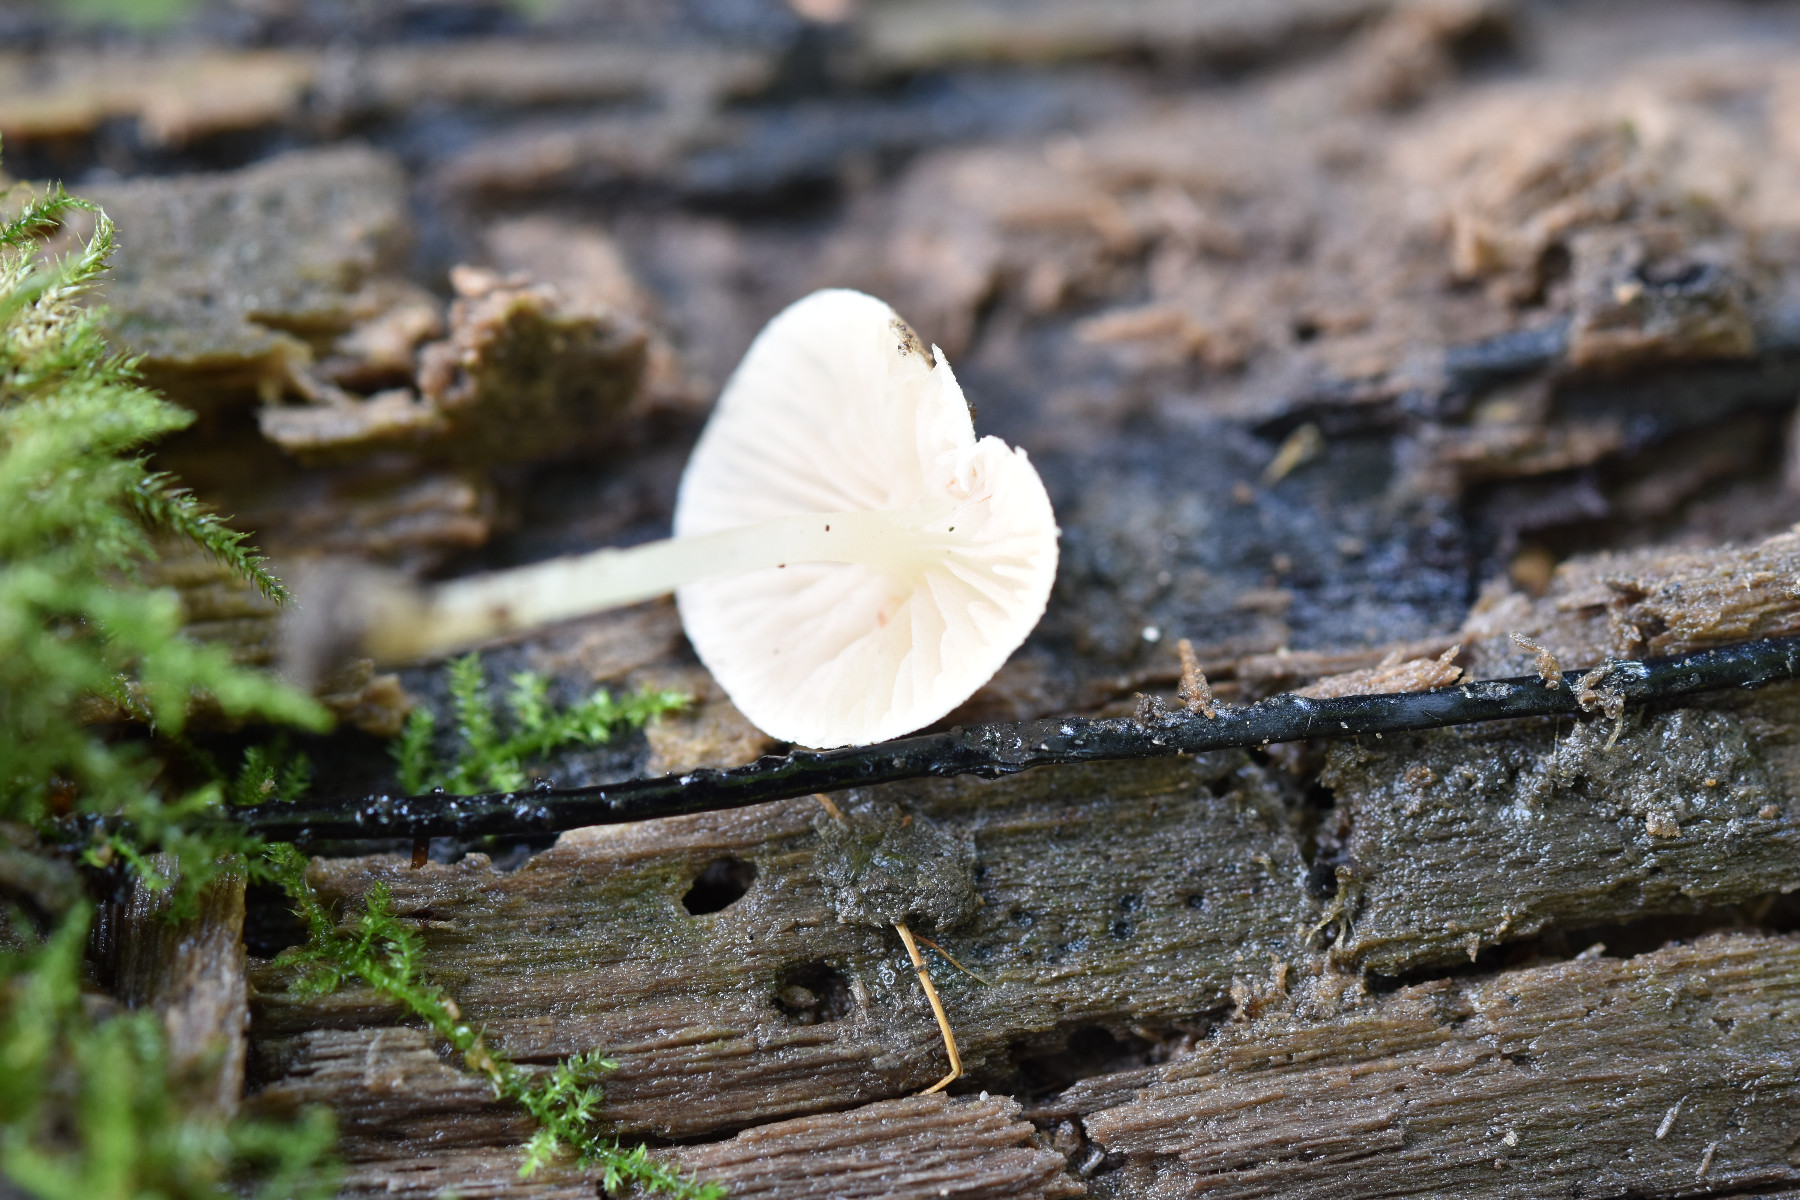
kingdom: Fungi
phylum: Basidiomycota
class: Agaricomycetes
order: Agaricales
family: Entolomataceae
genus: Entoloma
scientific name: Entoloma sericellum
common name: silkehvid rødblad
